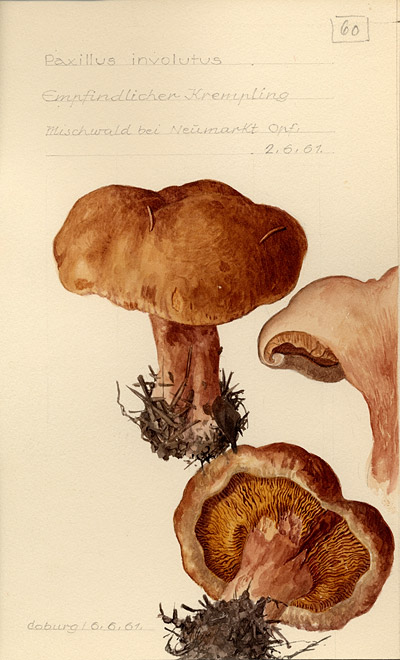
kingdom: Fungi
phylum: Basidiomycota
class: Agaricomycetes
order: Boletales
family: Paxillaceae
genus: Paxillus
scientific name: Paxillus involutus
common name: Brown roll rim
